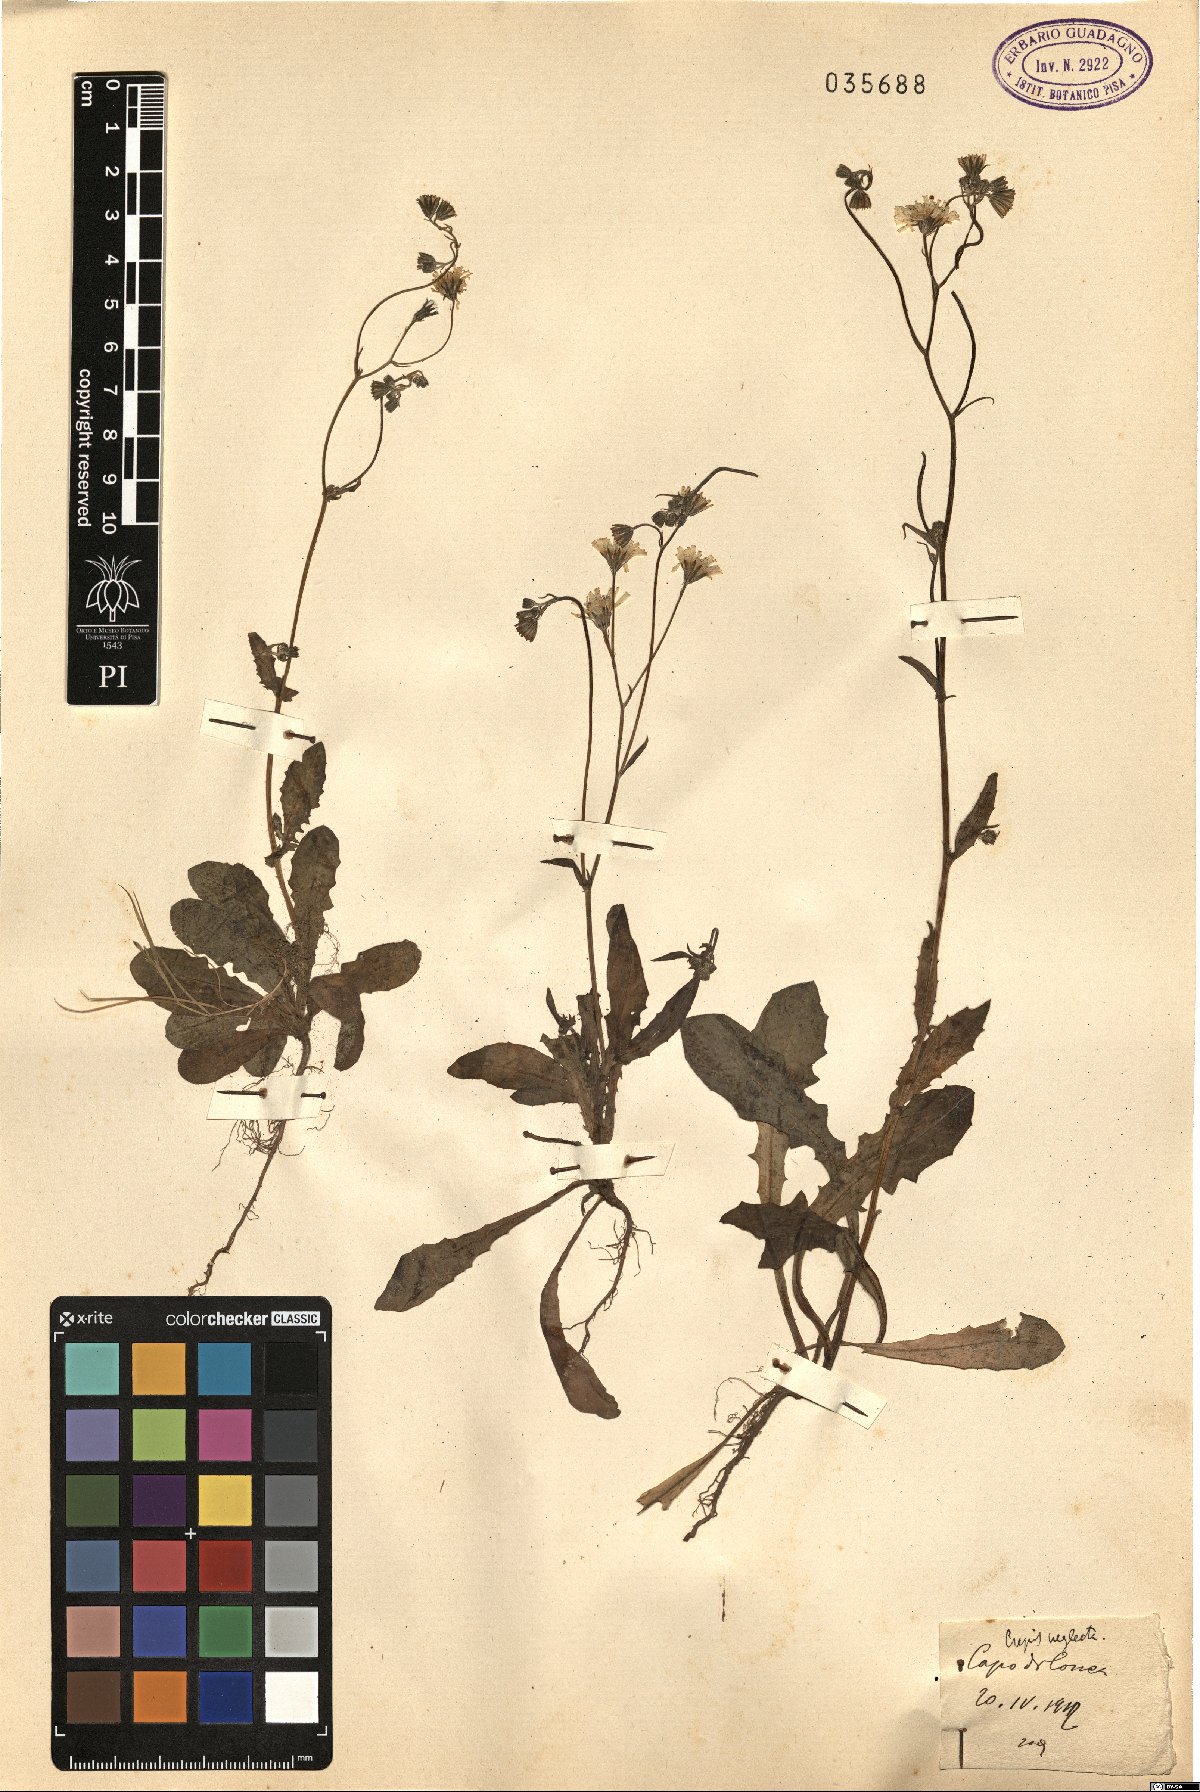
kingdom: Plantae
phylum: Tracheophyta
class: Magnoliopsida
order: Asterales
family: Asteraceae
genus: Crepis
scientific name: Crepis neglecta
